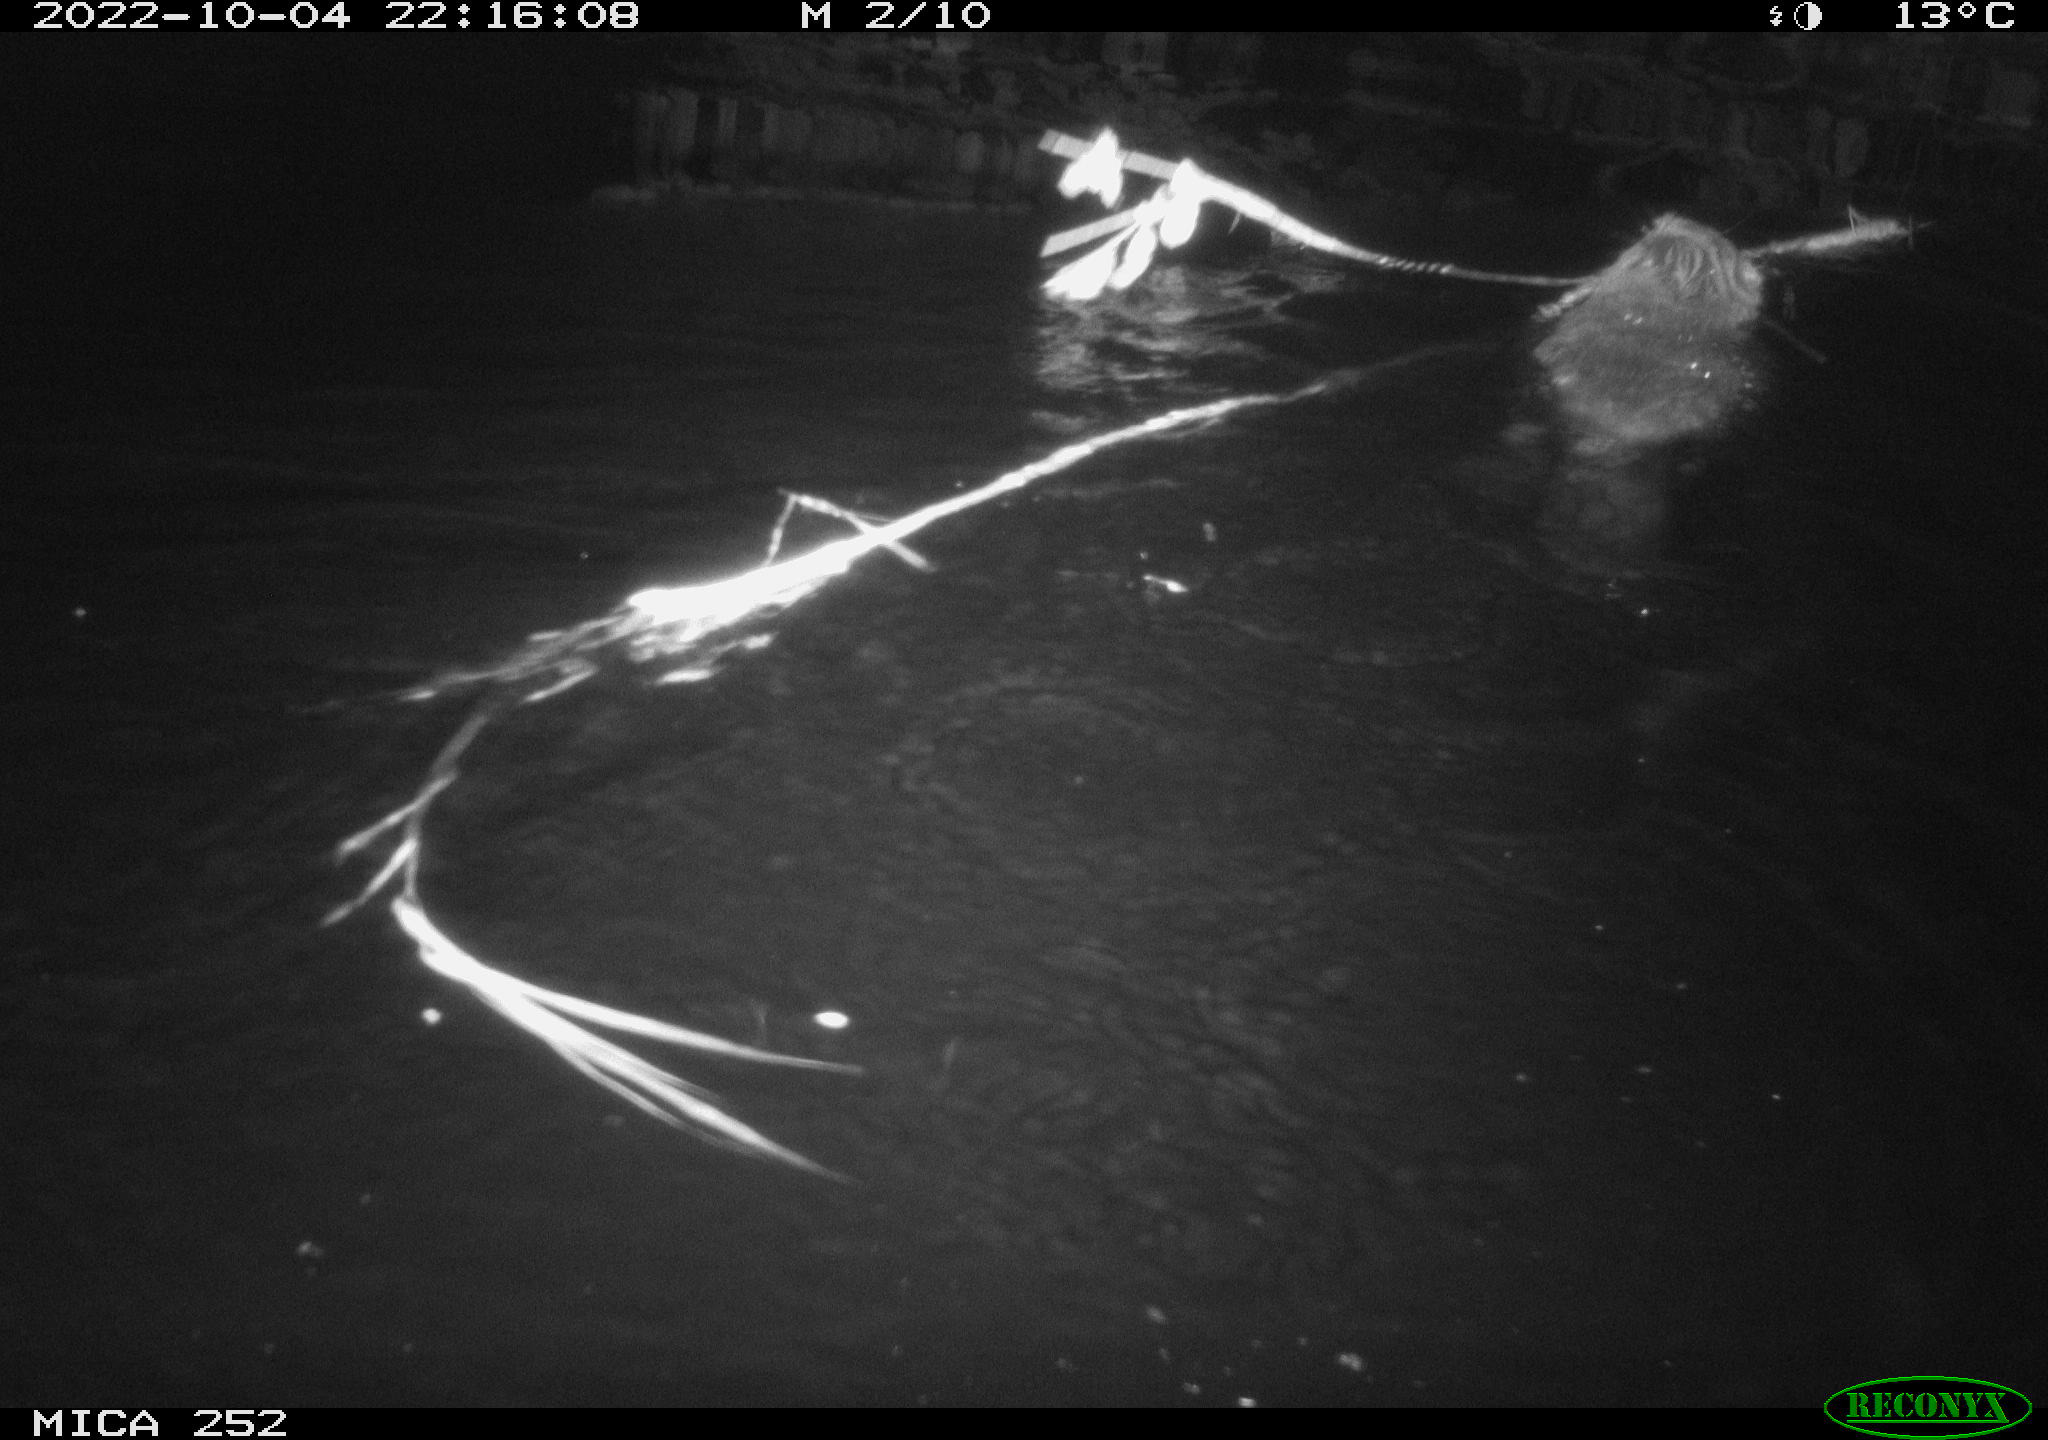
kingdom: Animalia
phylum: Chordata
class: Mammalia
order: Rodentia
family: Castoridae
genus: Castor
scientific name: Castor fiber
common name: Eurasian beaver
